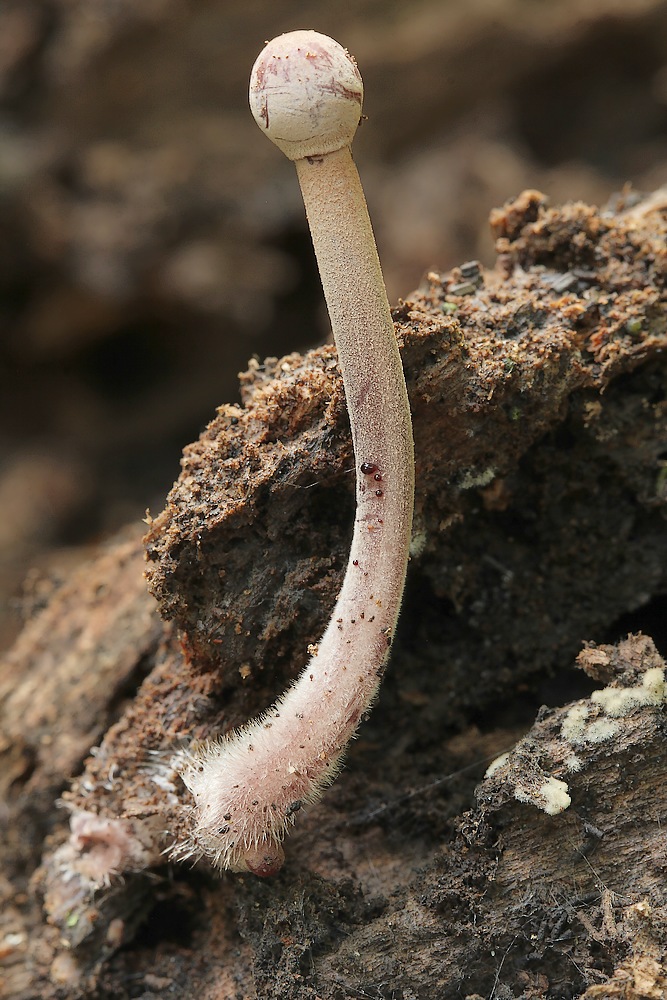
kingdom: Fungi
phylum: Basidiomycota
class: Agaricomycetes
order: Agaricales
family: Mycenaceae
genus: Mycena
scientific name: Mycena haematopus
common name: blødende huesvamp
